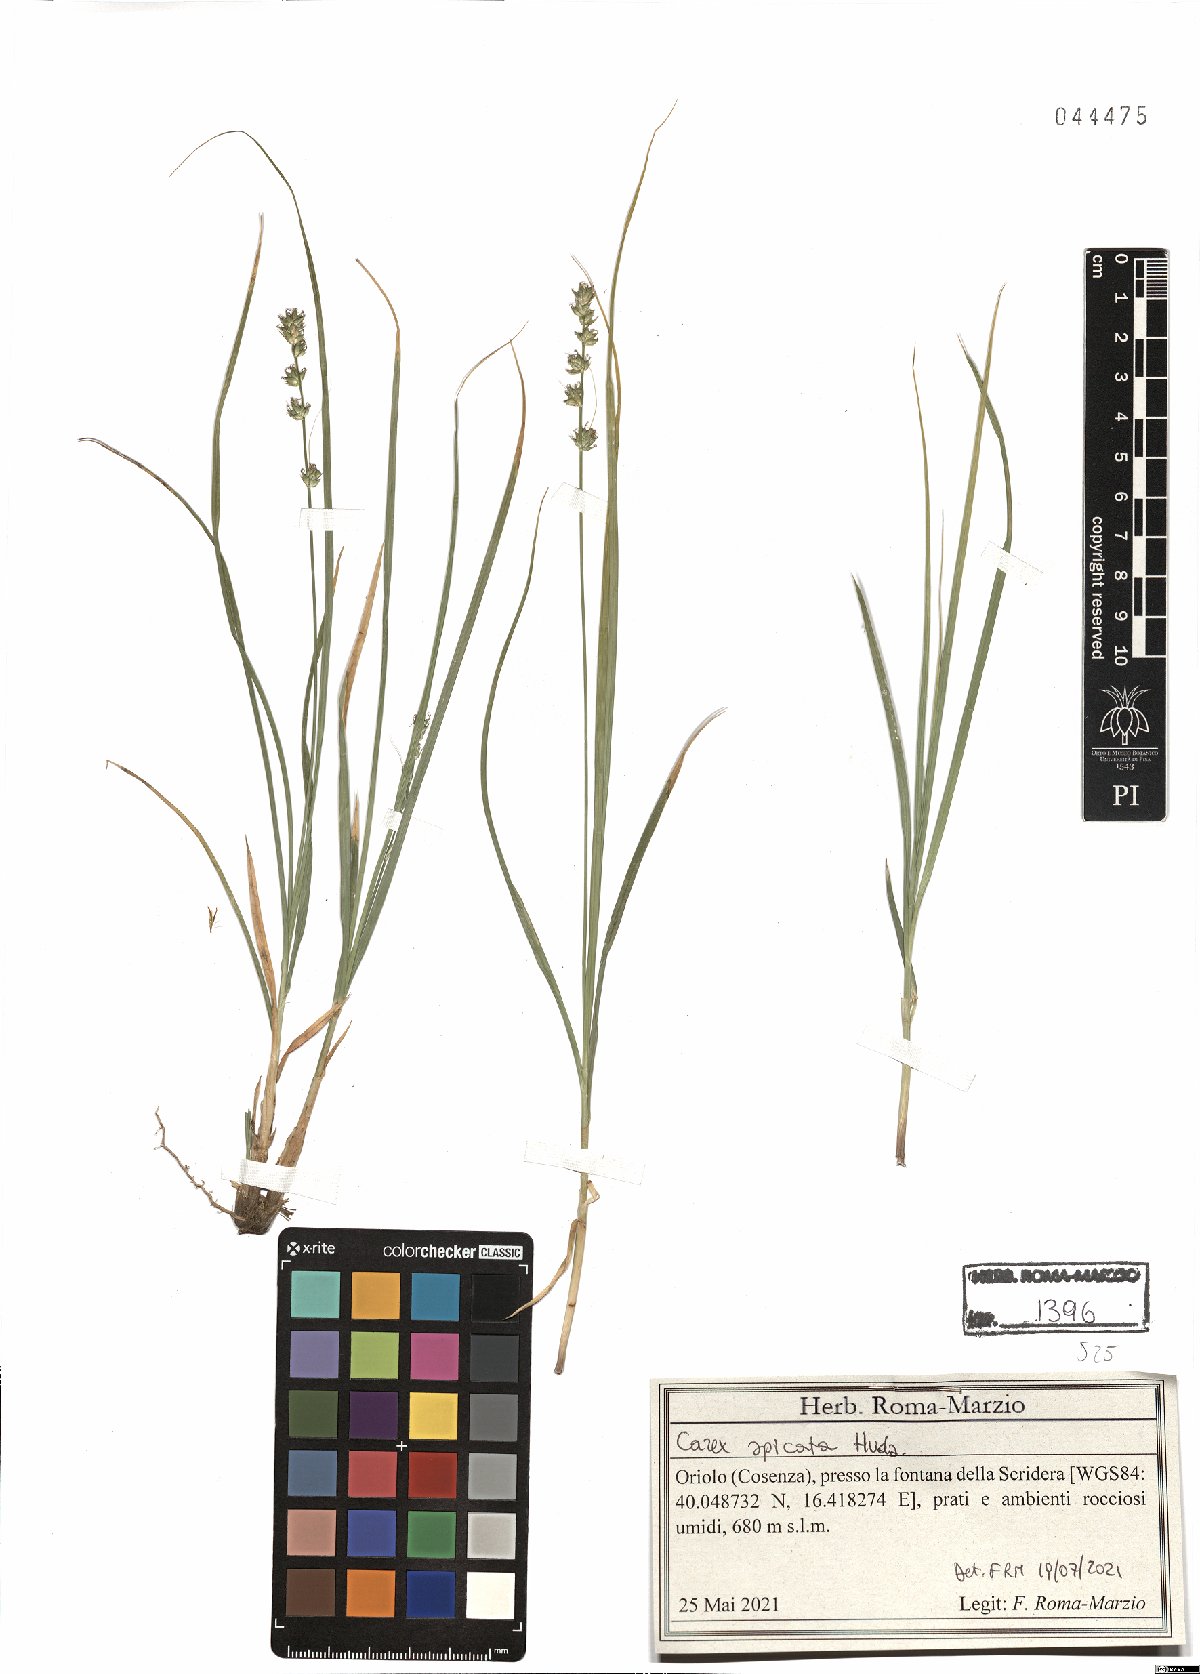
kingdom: Plantae
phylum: Tracheophyta
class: Liliopsida
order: Poales
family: Cyperaceae
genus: Carex
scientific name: Carex spicata
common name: Spiked sedge
